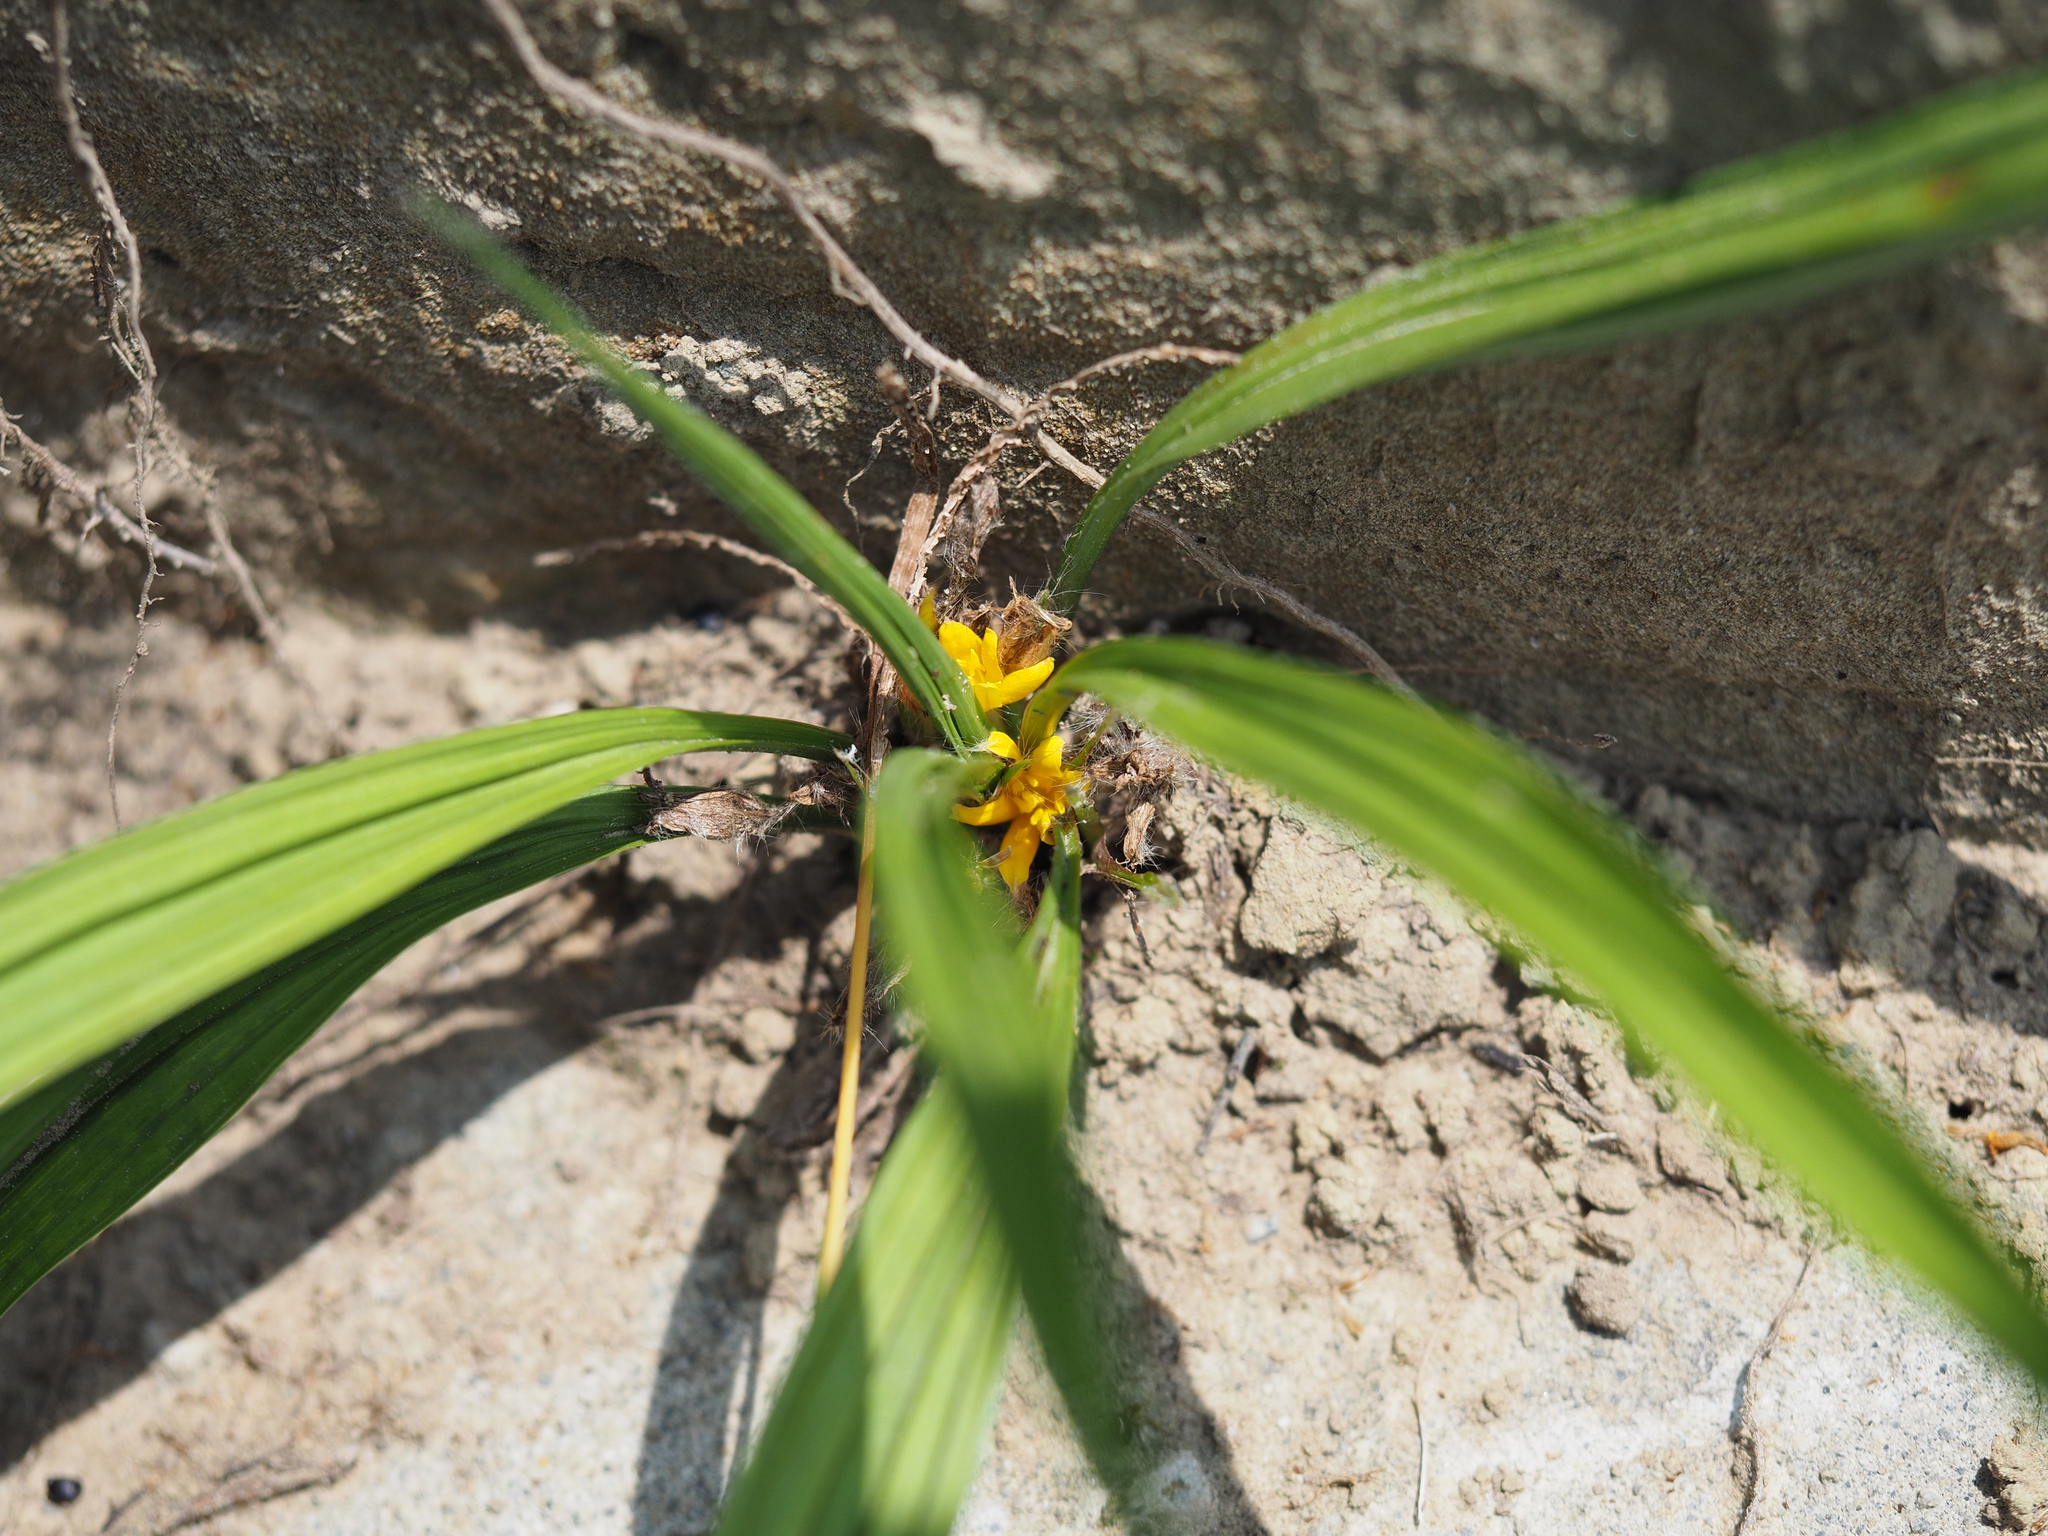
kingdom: Plantae
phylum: Tracheophyta
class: Liliopsida
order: Asparagales
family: Hypoxidaceae
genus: Curculigo
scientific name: Curculigo orchioides
